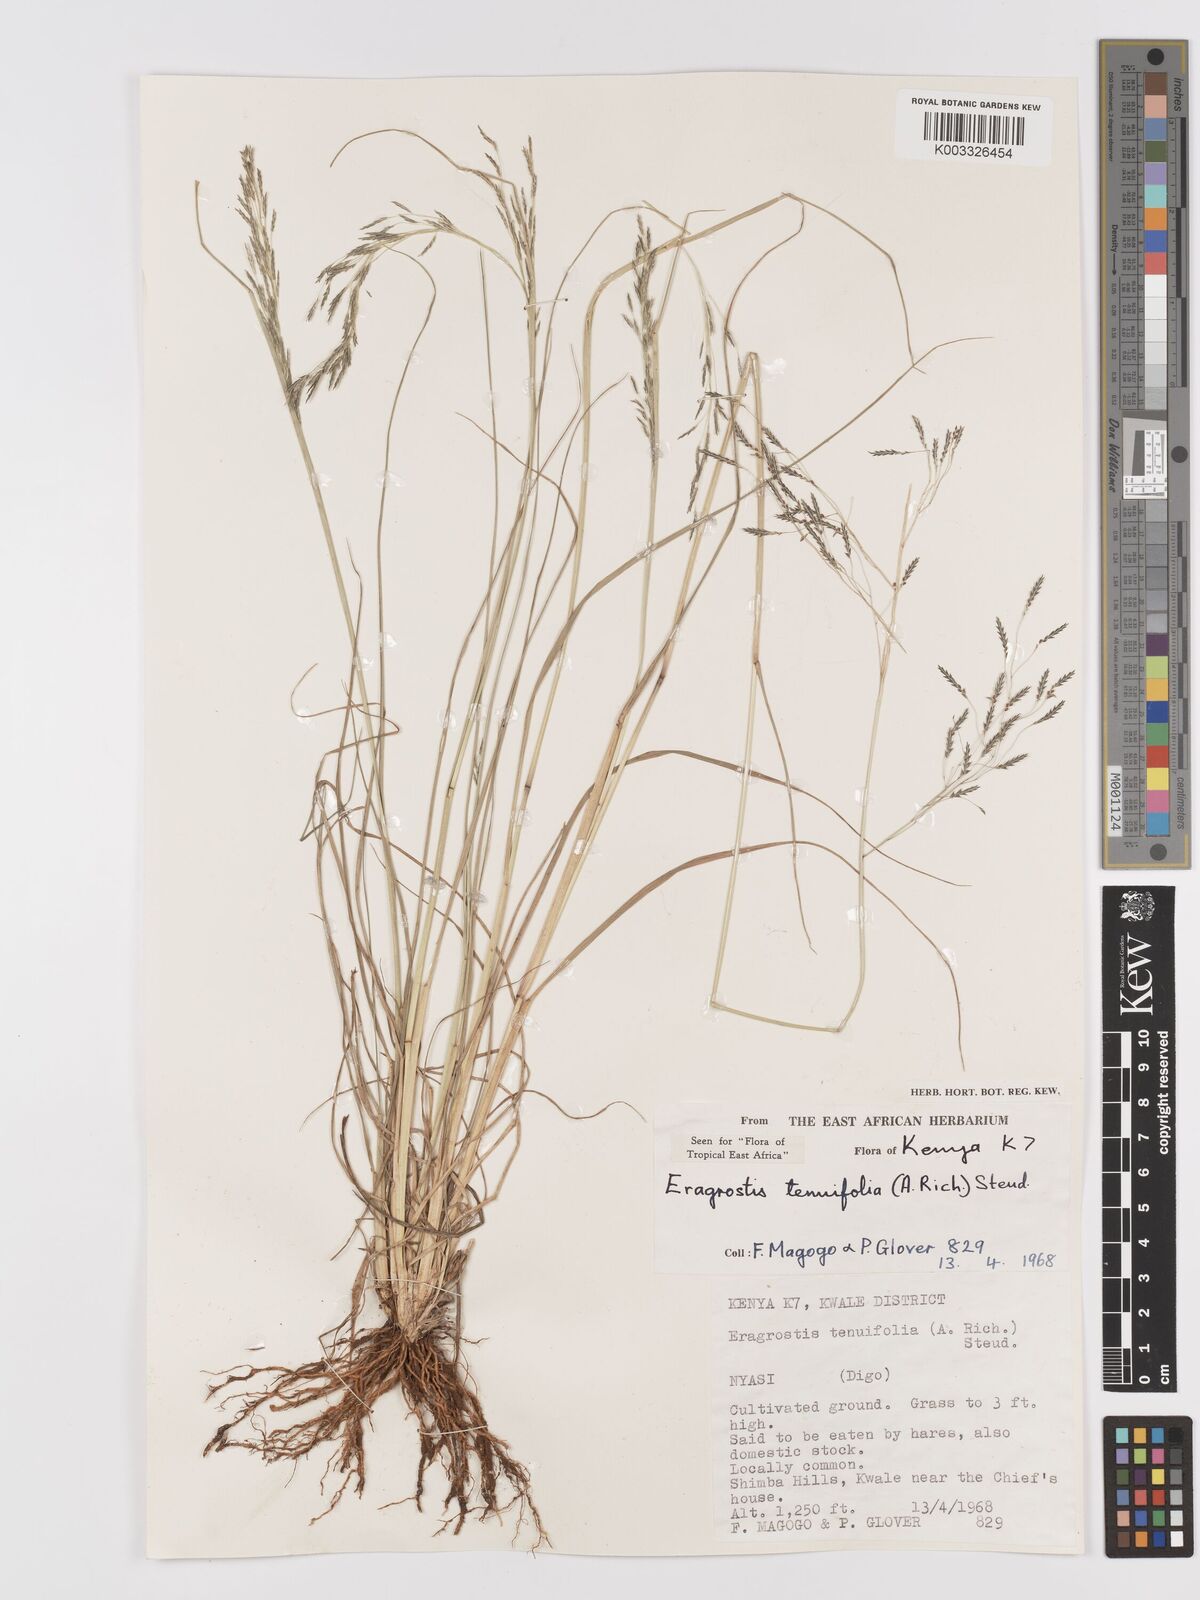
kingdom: Plantae
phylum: Tracheophyta
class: Liliopsida
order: Poales
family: Poaceae
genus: Eragrostis
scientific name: Eragrostis tenuifolia
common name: Elastic grass
